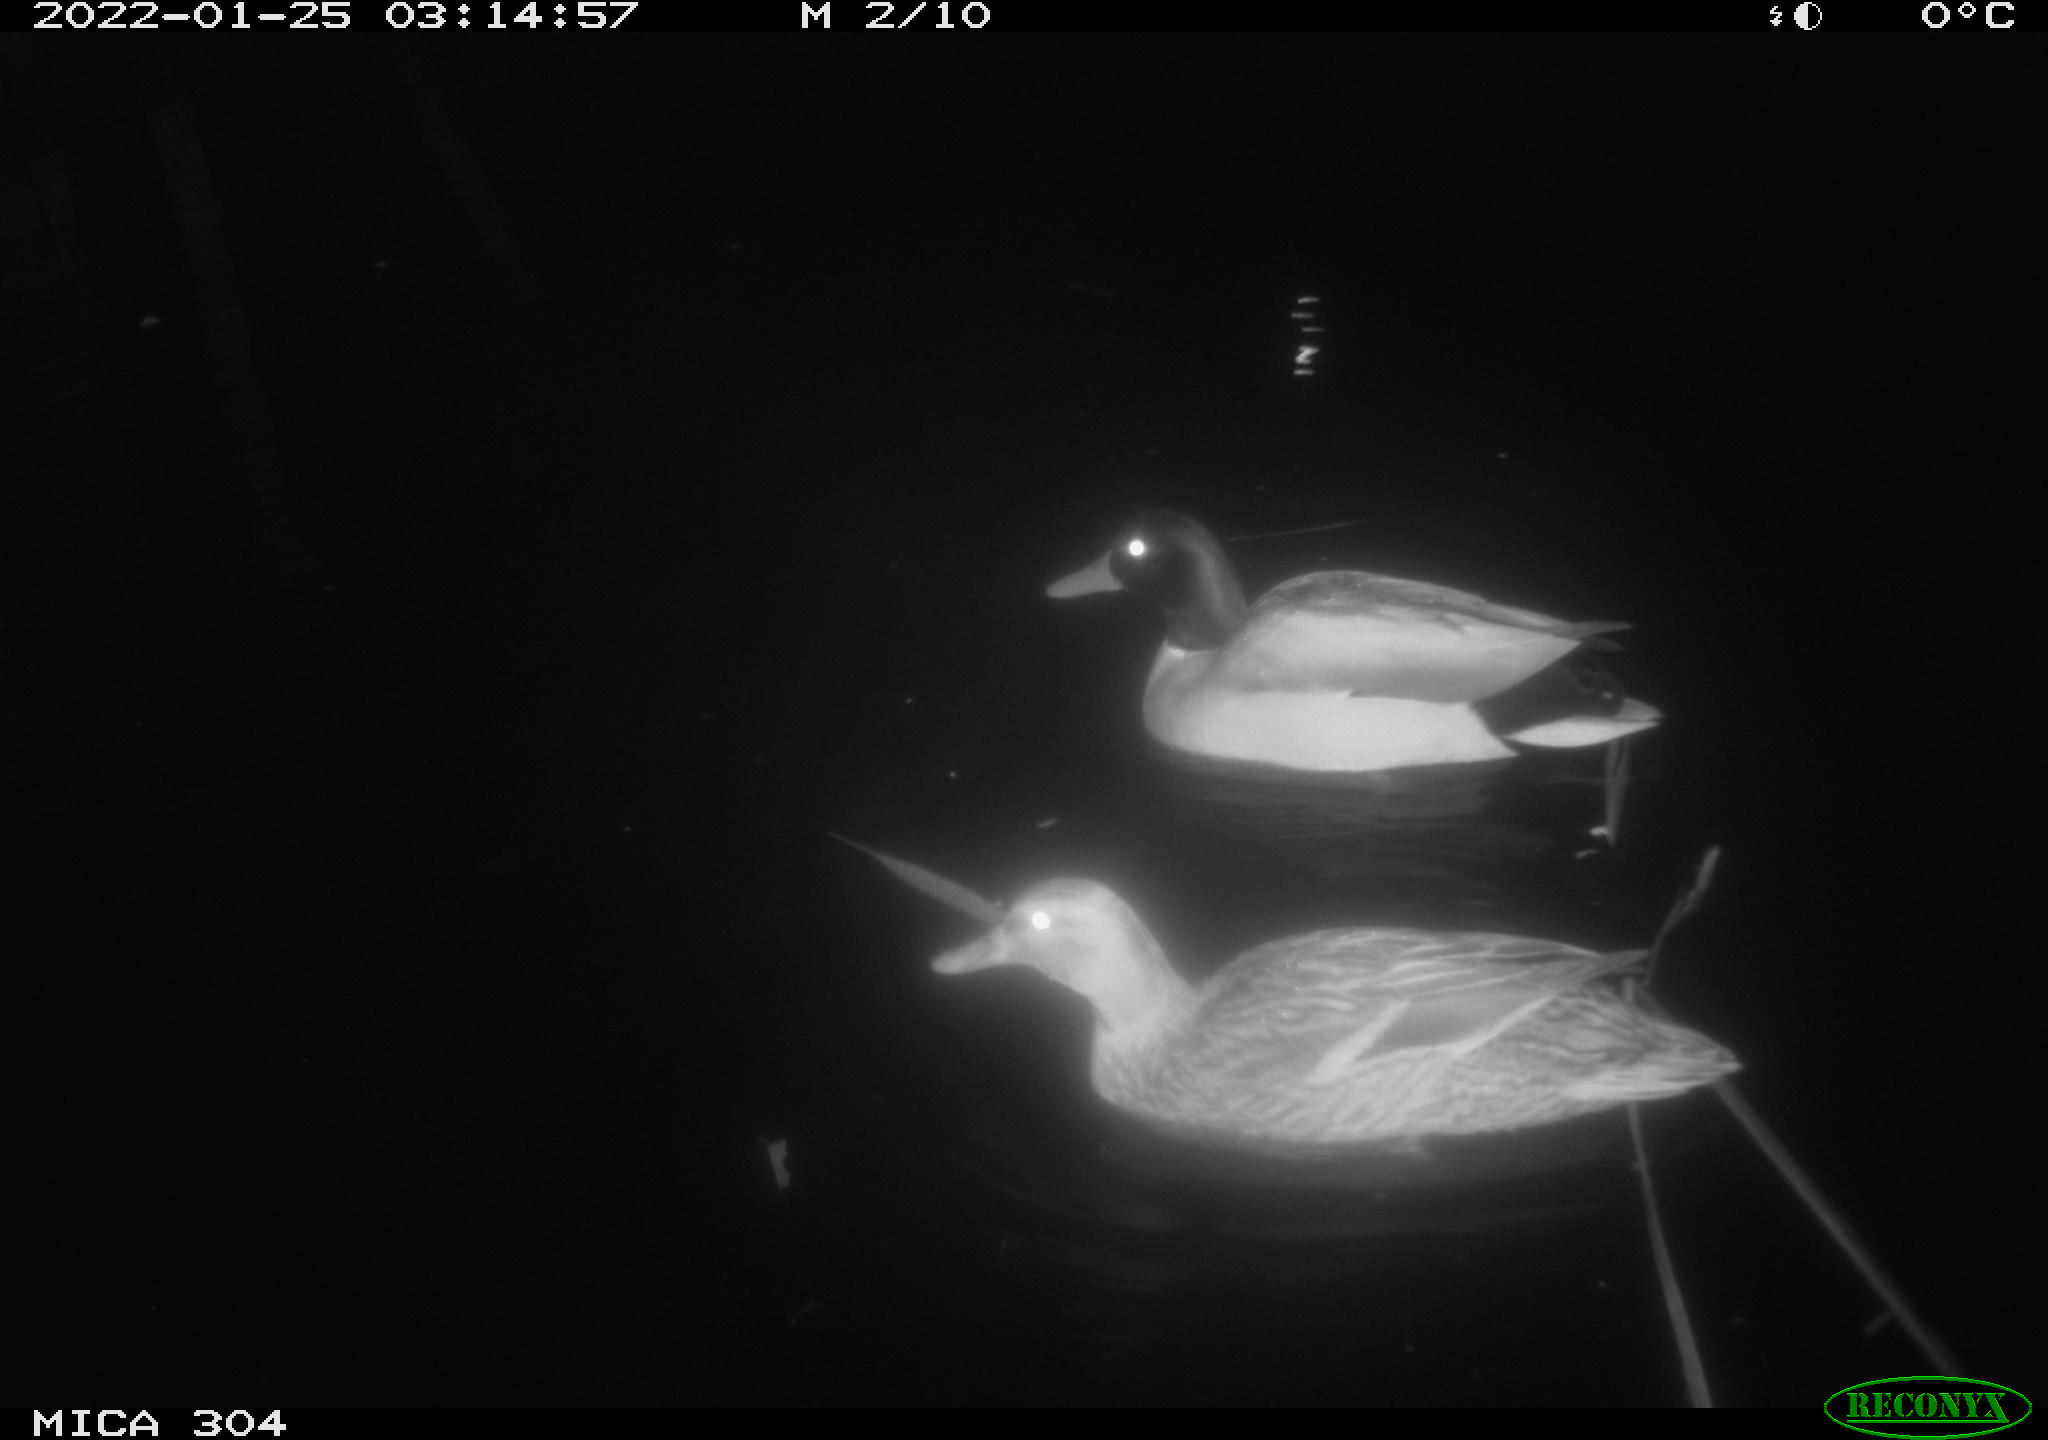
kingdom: Animalia
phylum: Chordata
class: Aves
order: Anseriformes
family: Anatidae
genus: Anas
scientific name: Anas
